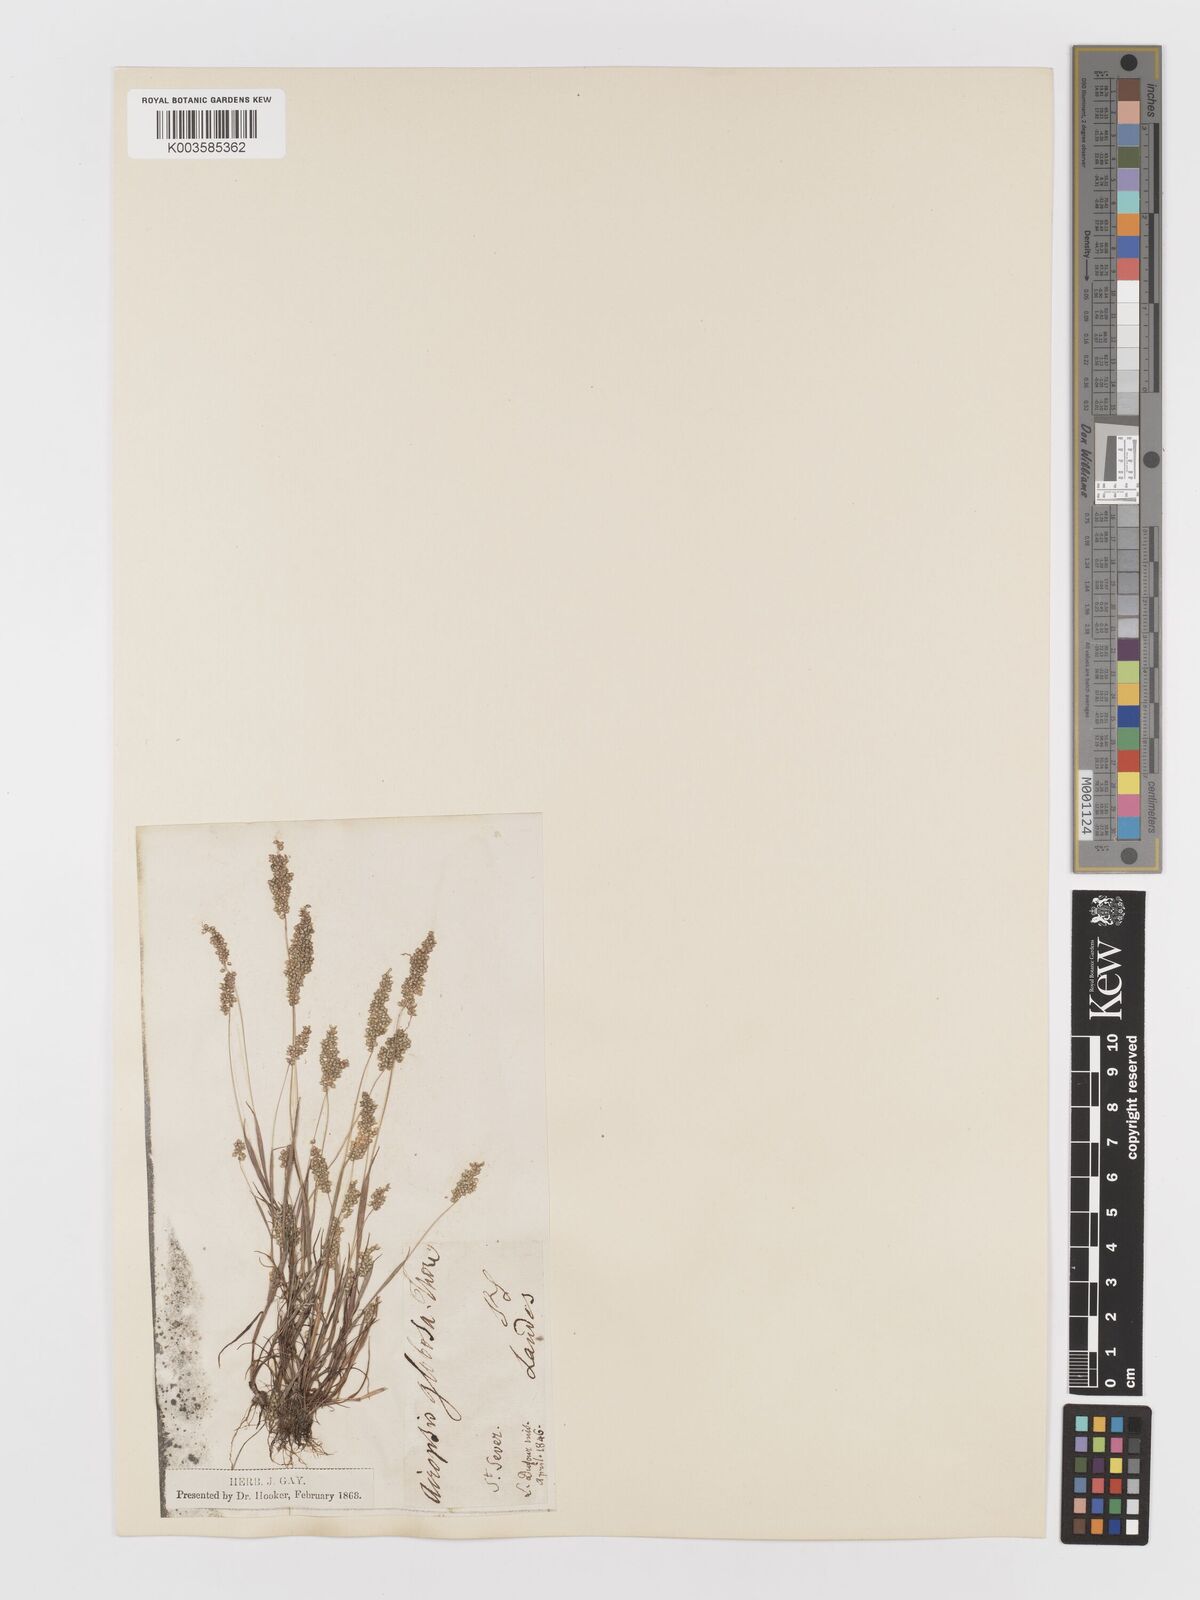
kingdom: Plantae
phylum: Tracheophyta
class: Liliopsida
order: Poales
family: Poaceae
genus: Airopsis
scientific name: Airopsis tenella
